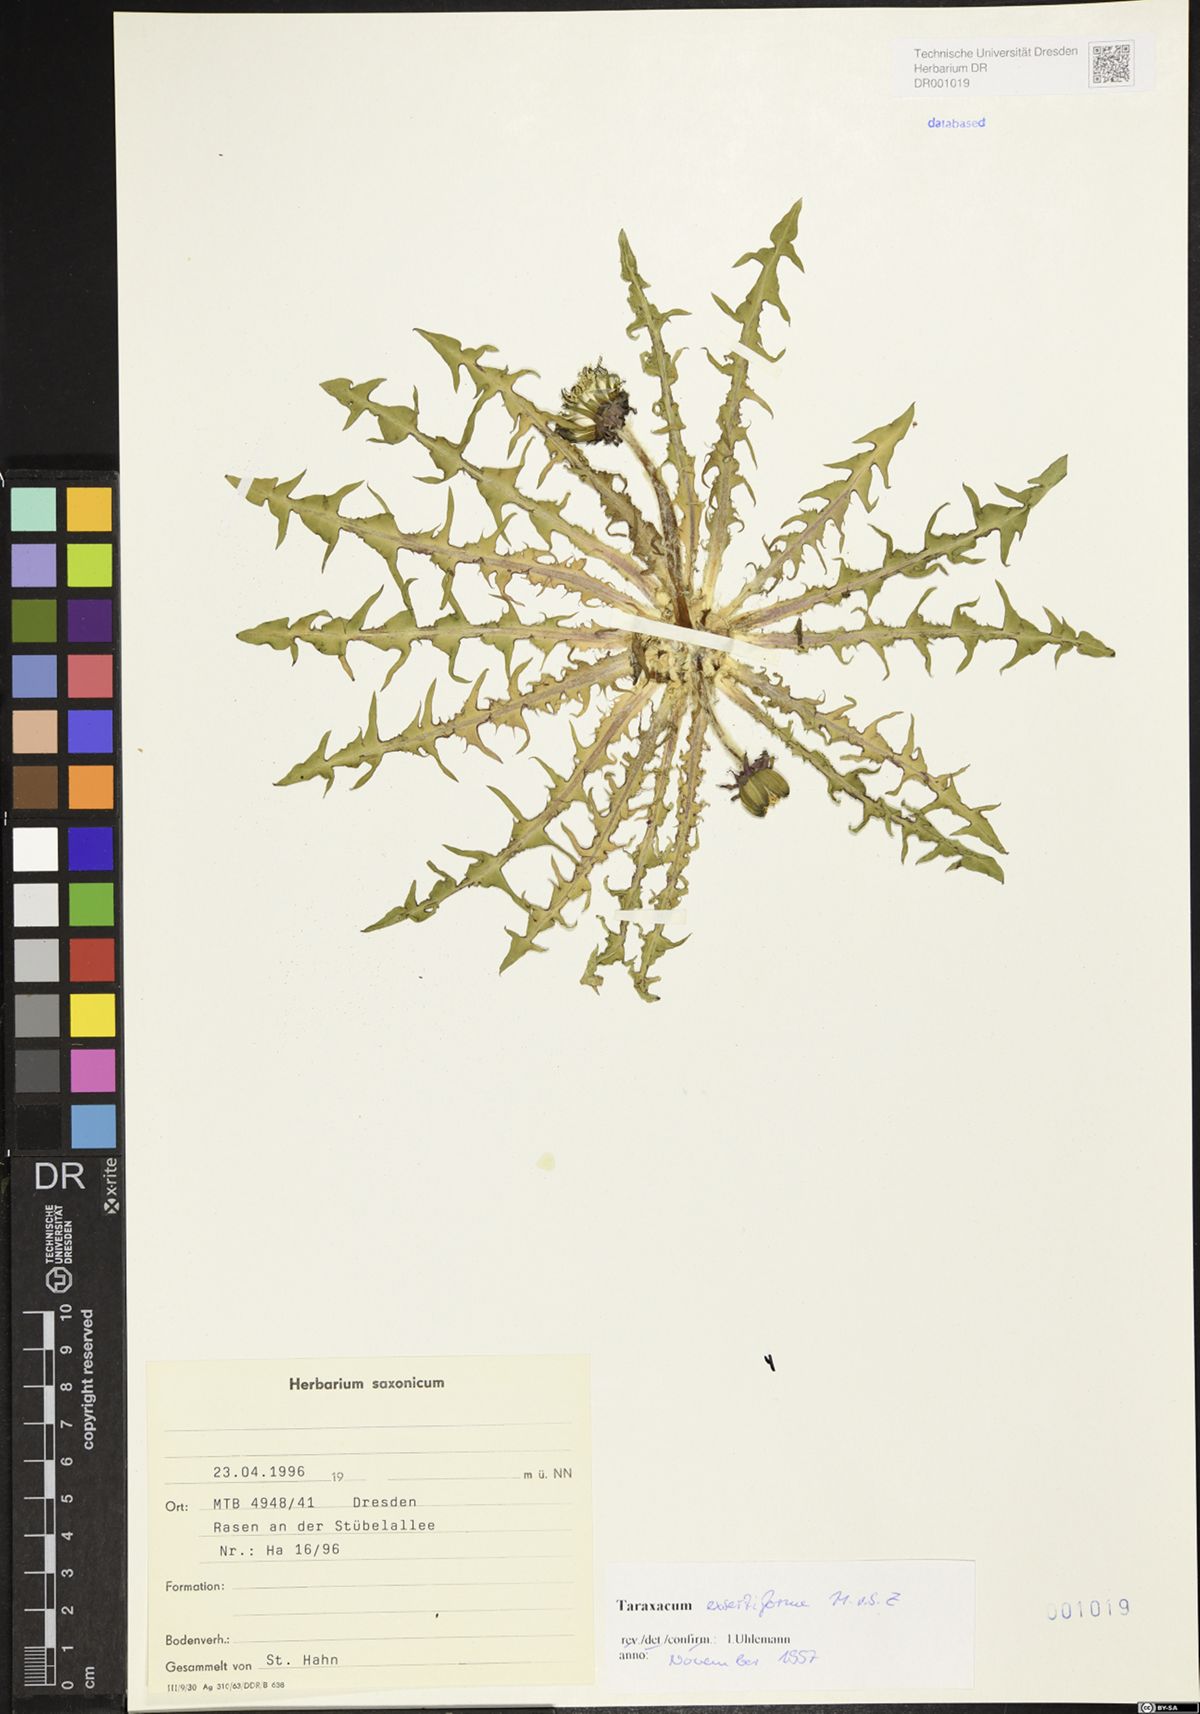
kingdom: Plantae
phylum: Tracheophyta
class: Magnoliopsida
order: Asterales
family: Asteraceae
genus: Taraxacum
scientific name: Taraxacum exsertiforme
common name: Erect-bracted dandelion
